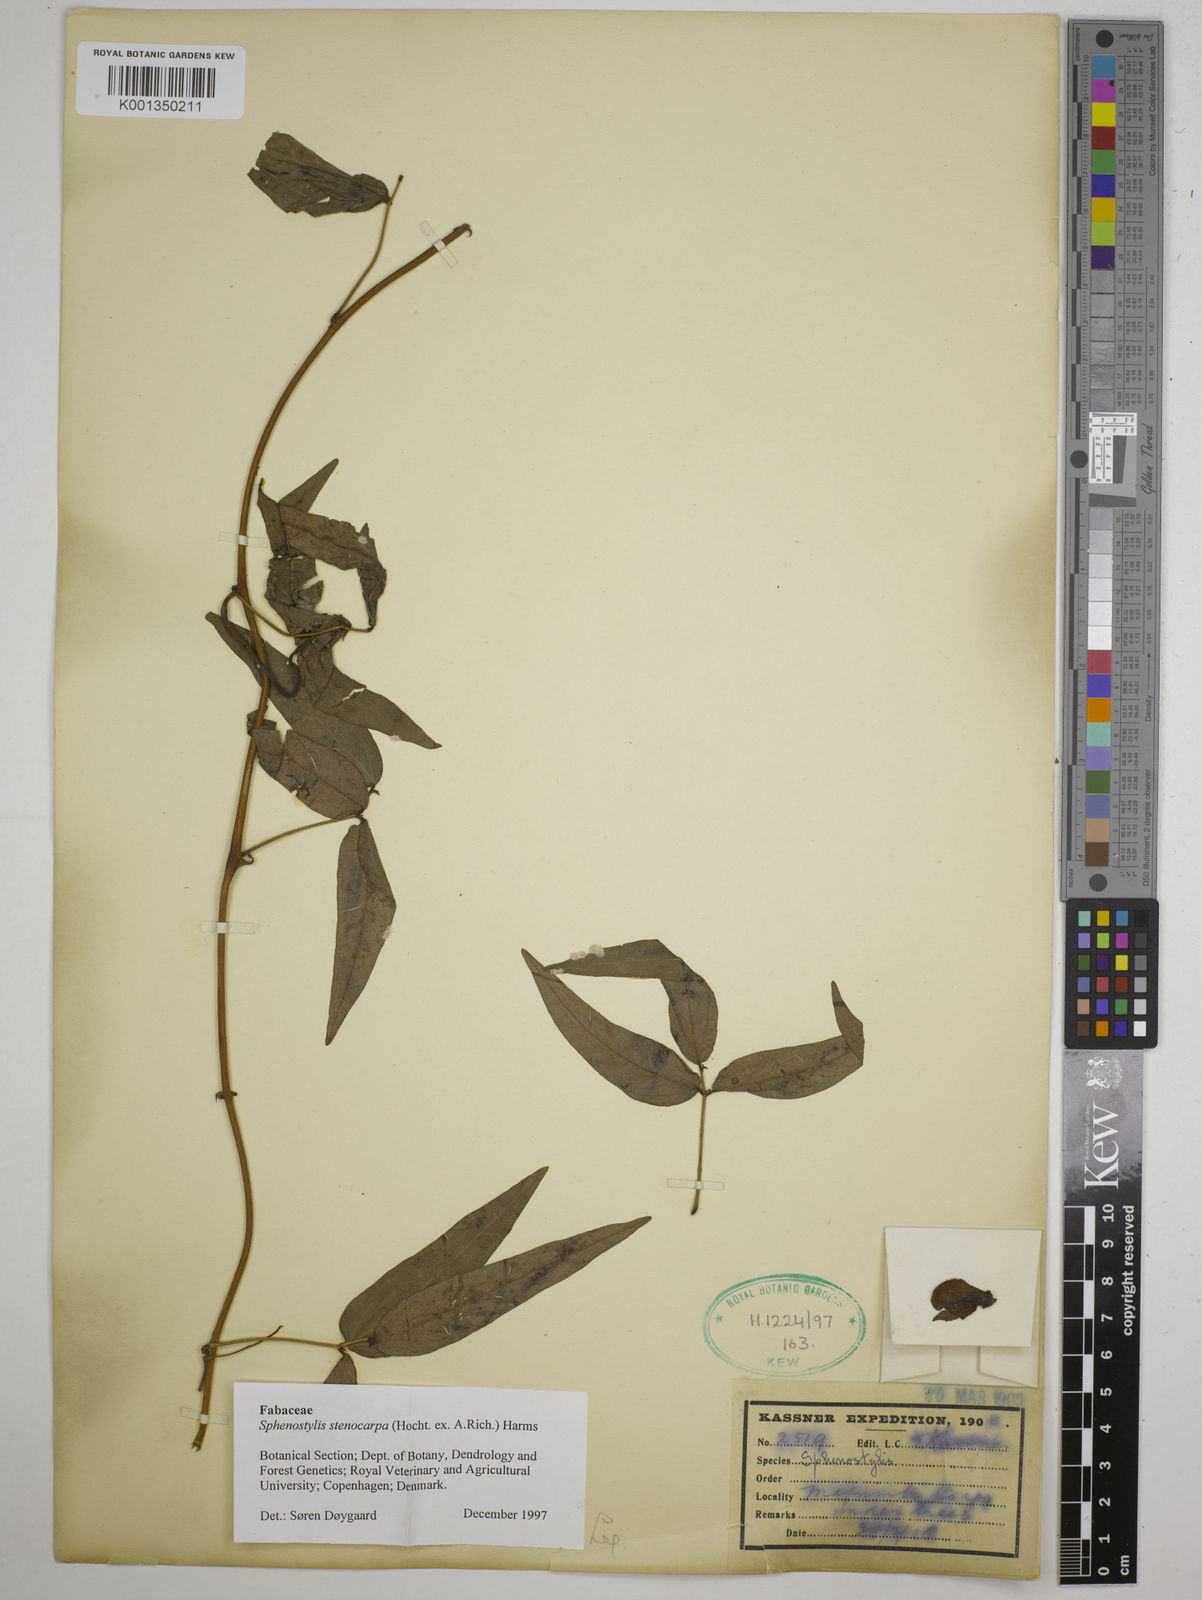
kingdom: Plantae
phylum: Tracheophyta
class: Magnoliopsida
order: Fabales
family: Fabaceae
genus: Sphenostylis
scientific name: Sphenostylis stenocarpa
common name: Yam-pea
